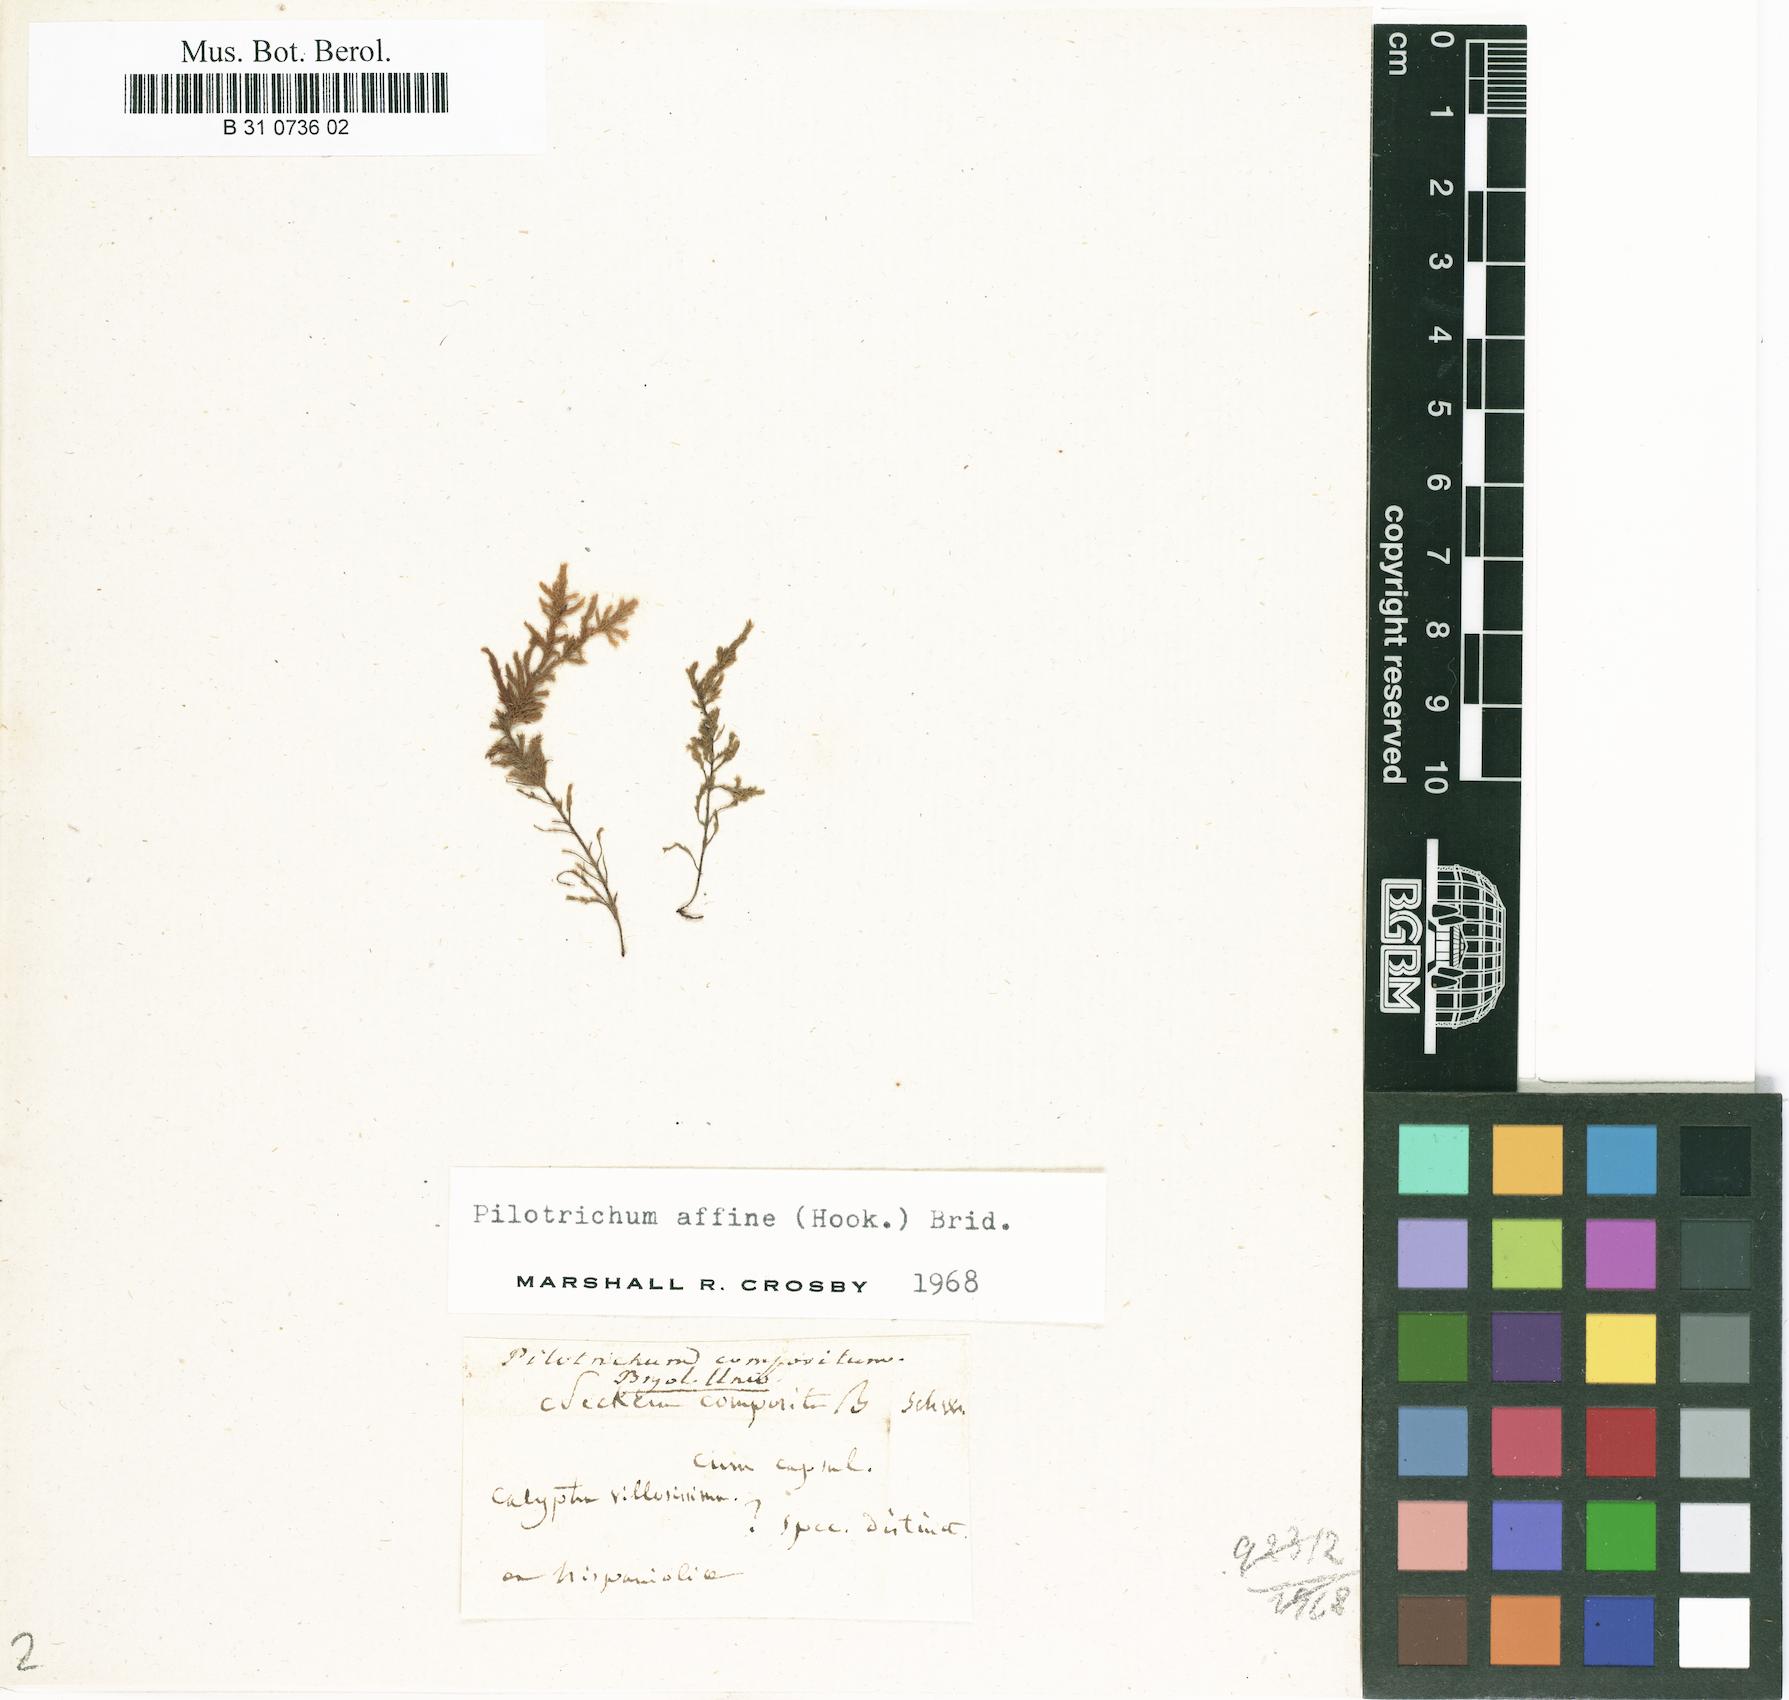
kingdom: Plantae
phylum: Bryophyta
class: Bryopsida
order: Hookeriales
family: Pilotrichaceae
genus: Pilotrichum
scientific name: Pilotrichum compositum
